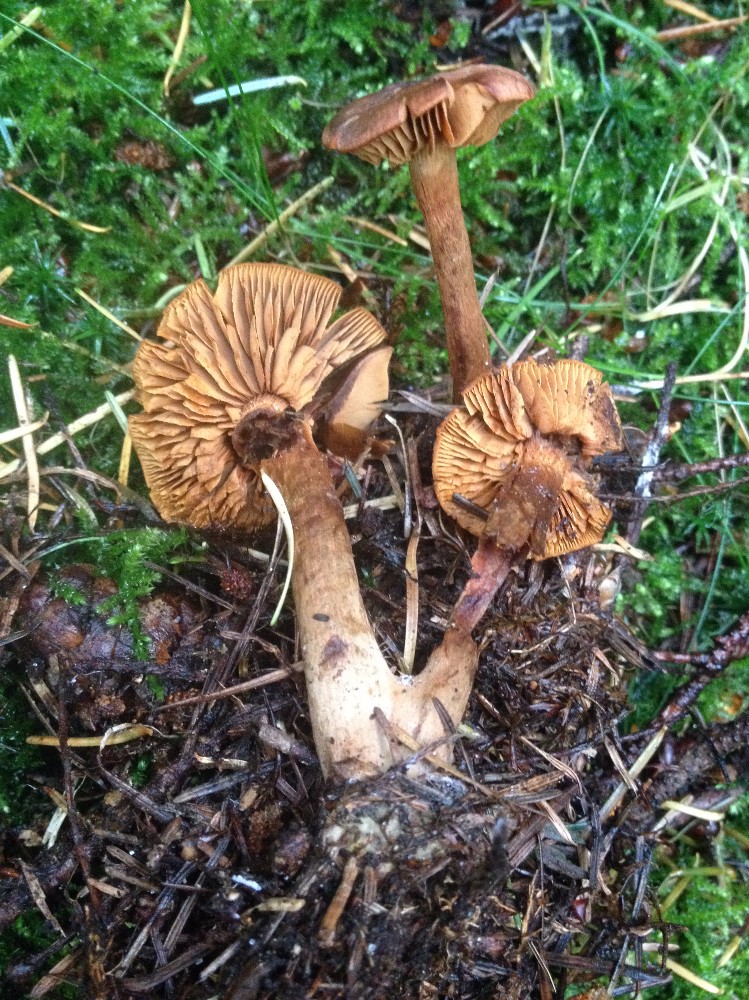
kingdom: Fungi
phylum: Basidiomycota
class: Agaricomycetes
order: Agaricales
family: Cortinariaceae
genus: Cortinarius
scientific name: Cortinarius
